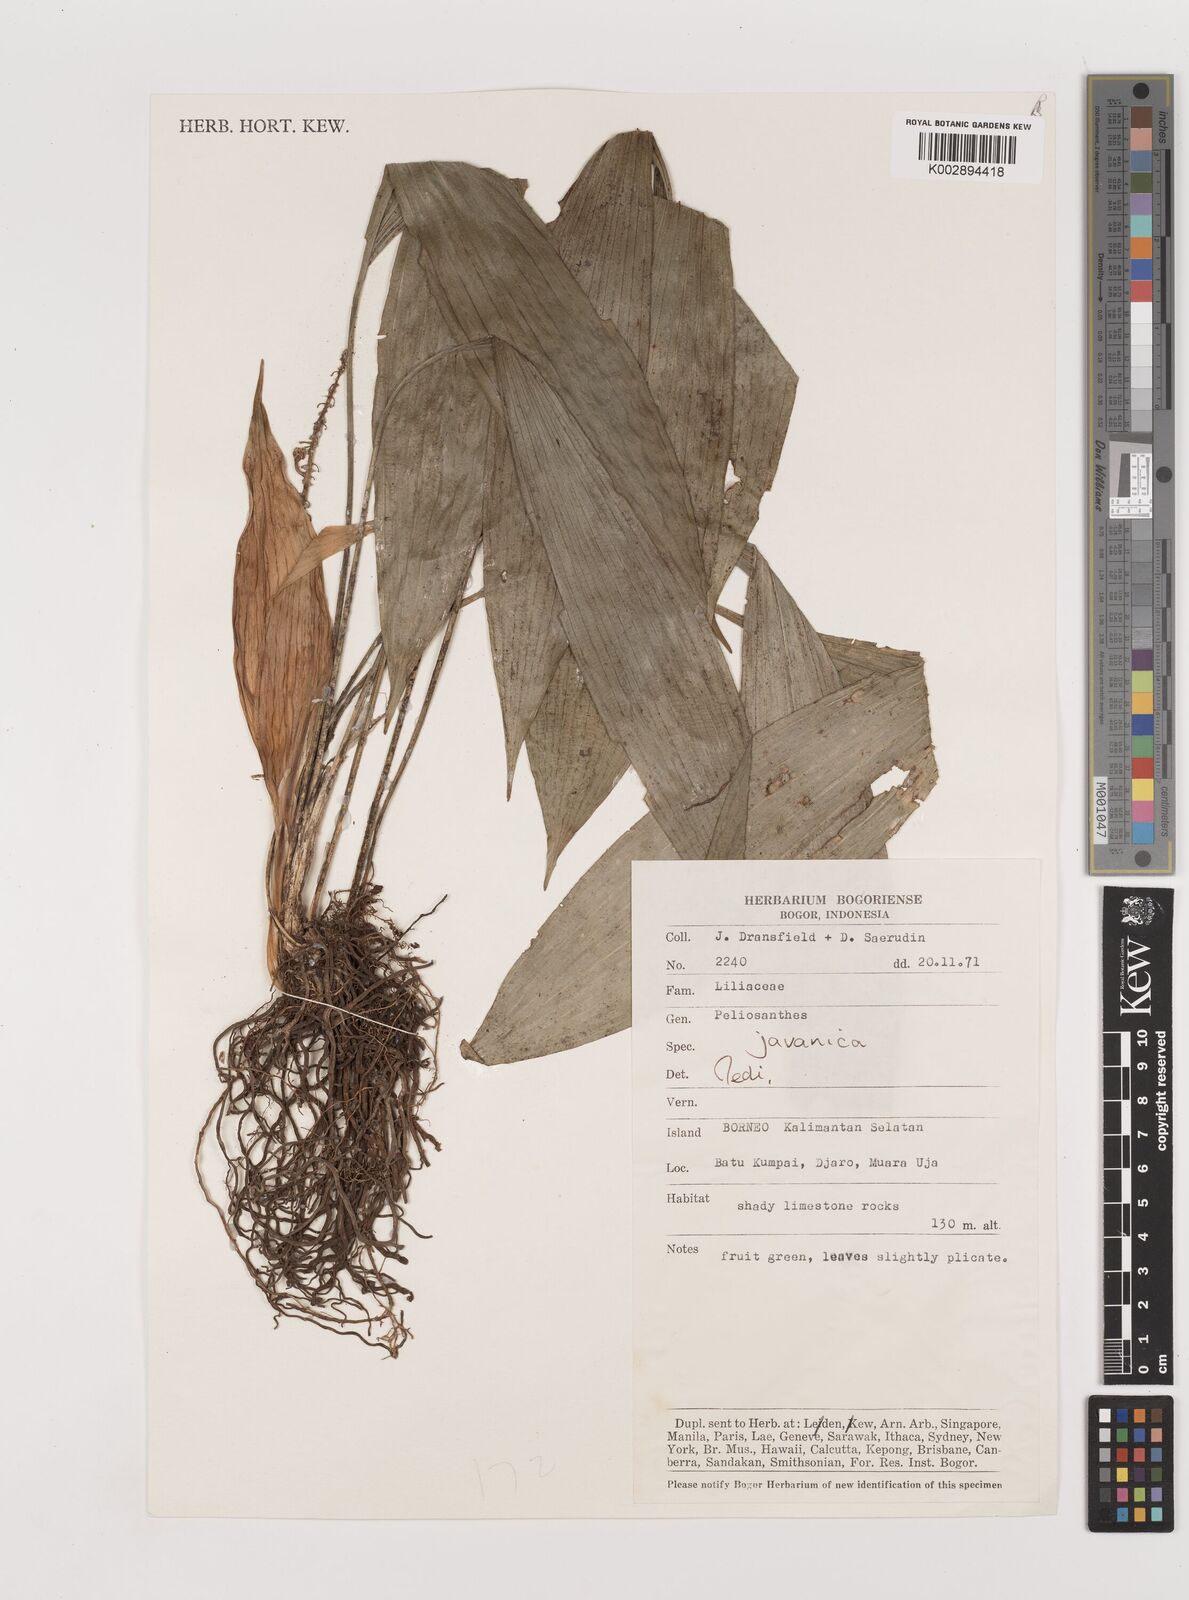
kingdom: Plantae
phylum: Tracheophyta
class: Liliopsida
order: Asparagales
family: Asparagaceae
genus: Peliosanthes
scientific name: Peliosanthes teta
